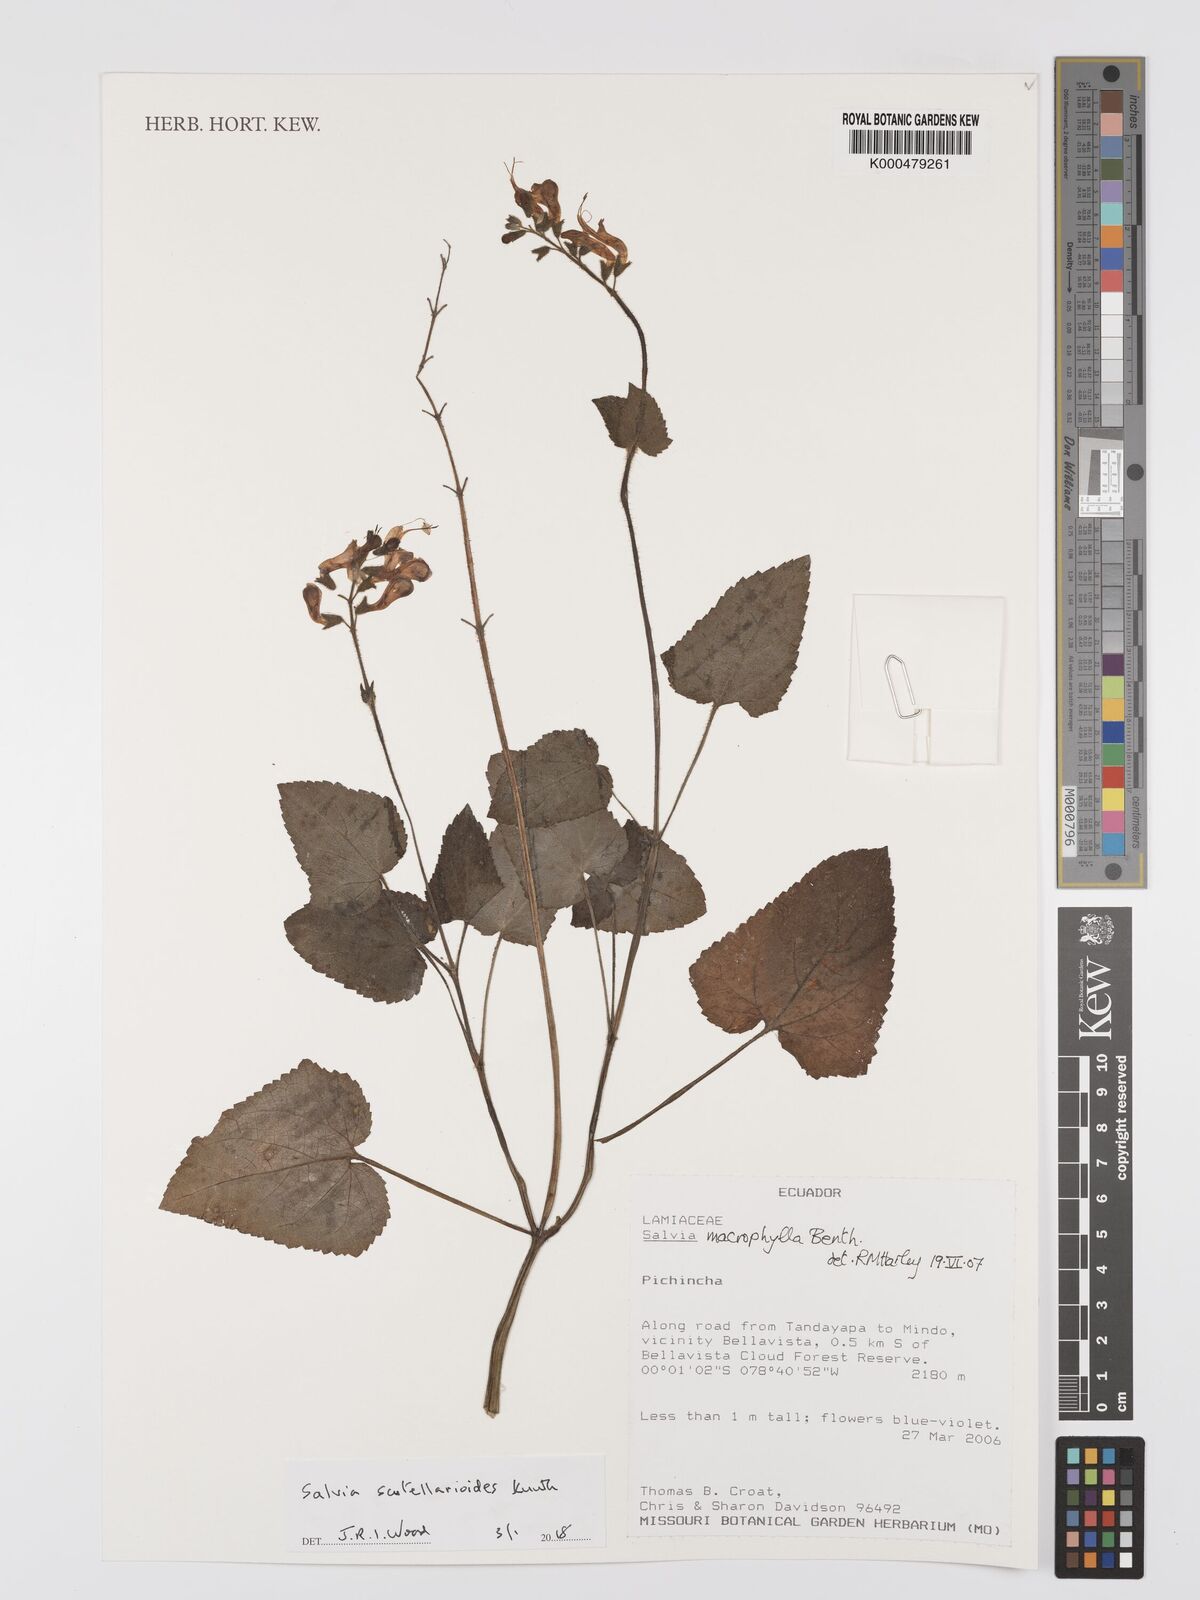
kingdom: Plantae
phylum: Tracheophyta
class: Magnoliopsida
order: Lamiales
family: Lamiaceae
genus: Salvia
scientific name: Salvia scutellarioides
